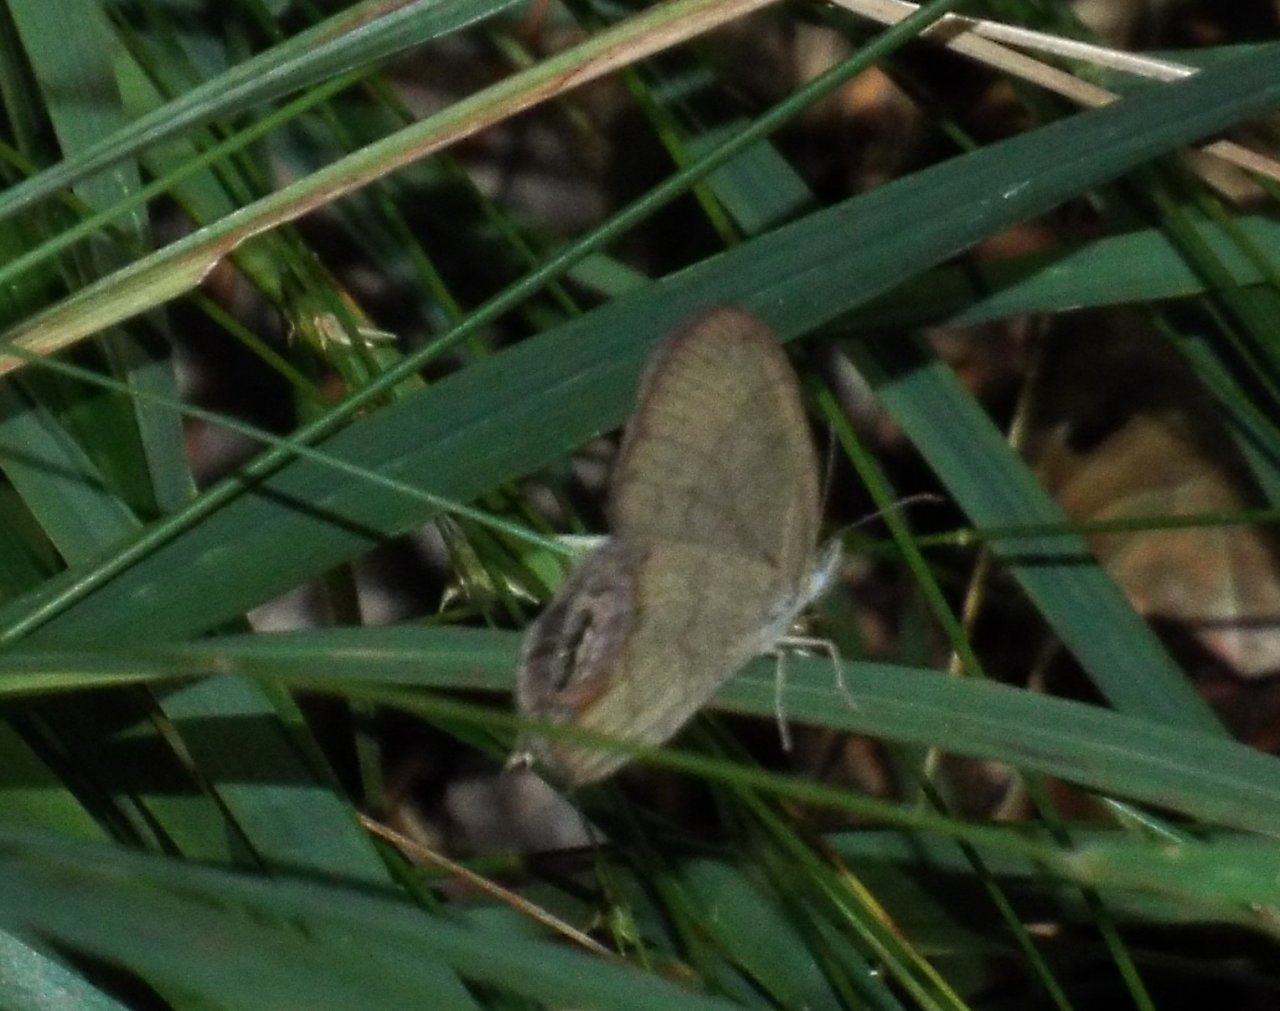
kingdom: Animalia
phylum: Arthropoda
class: Insecta
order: Lepidoptera
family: Nymphalidae
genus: Euptychia
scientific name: Euptychia cornelius
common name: Gemmed Satyr
